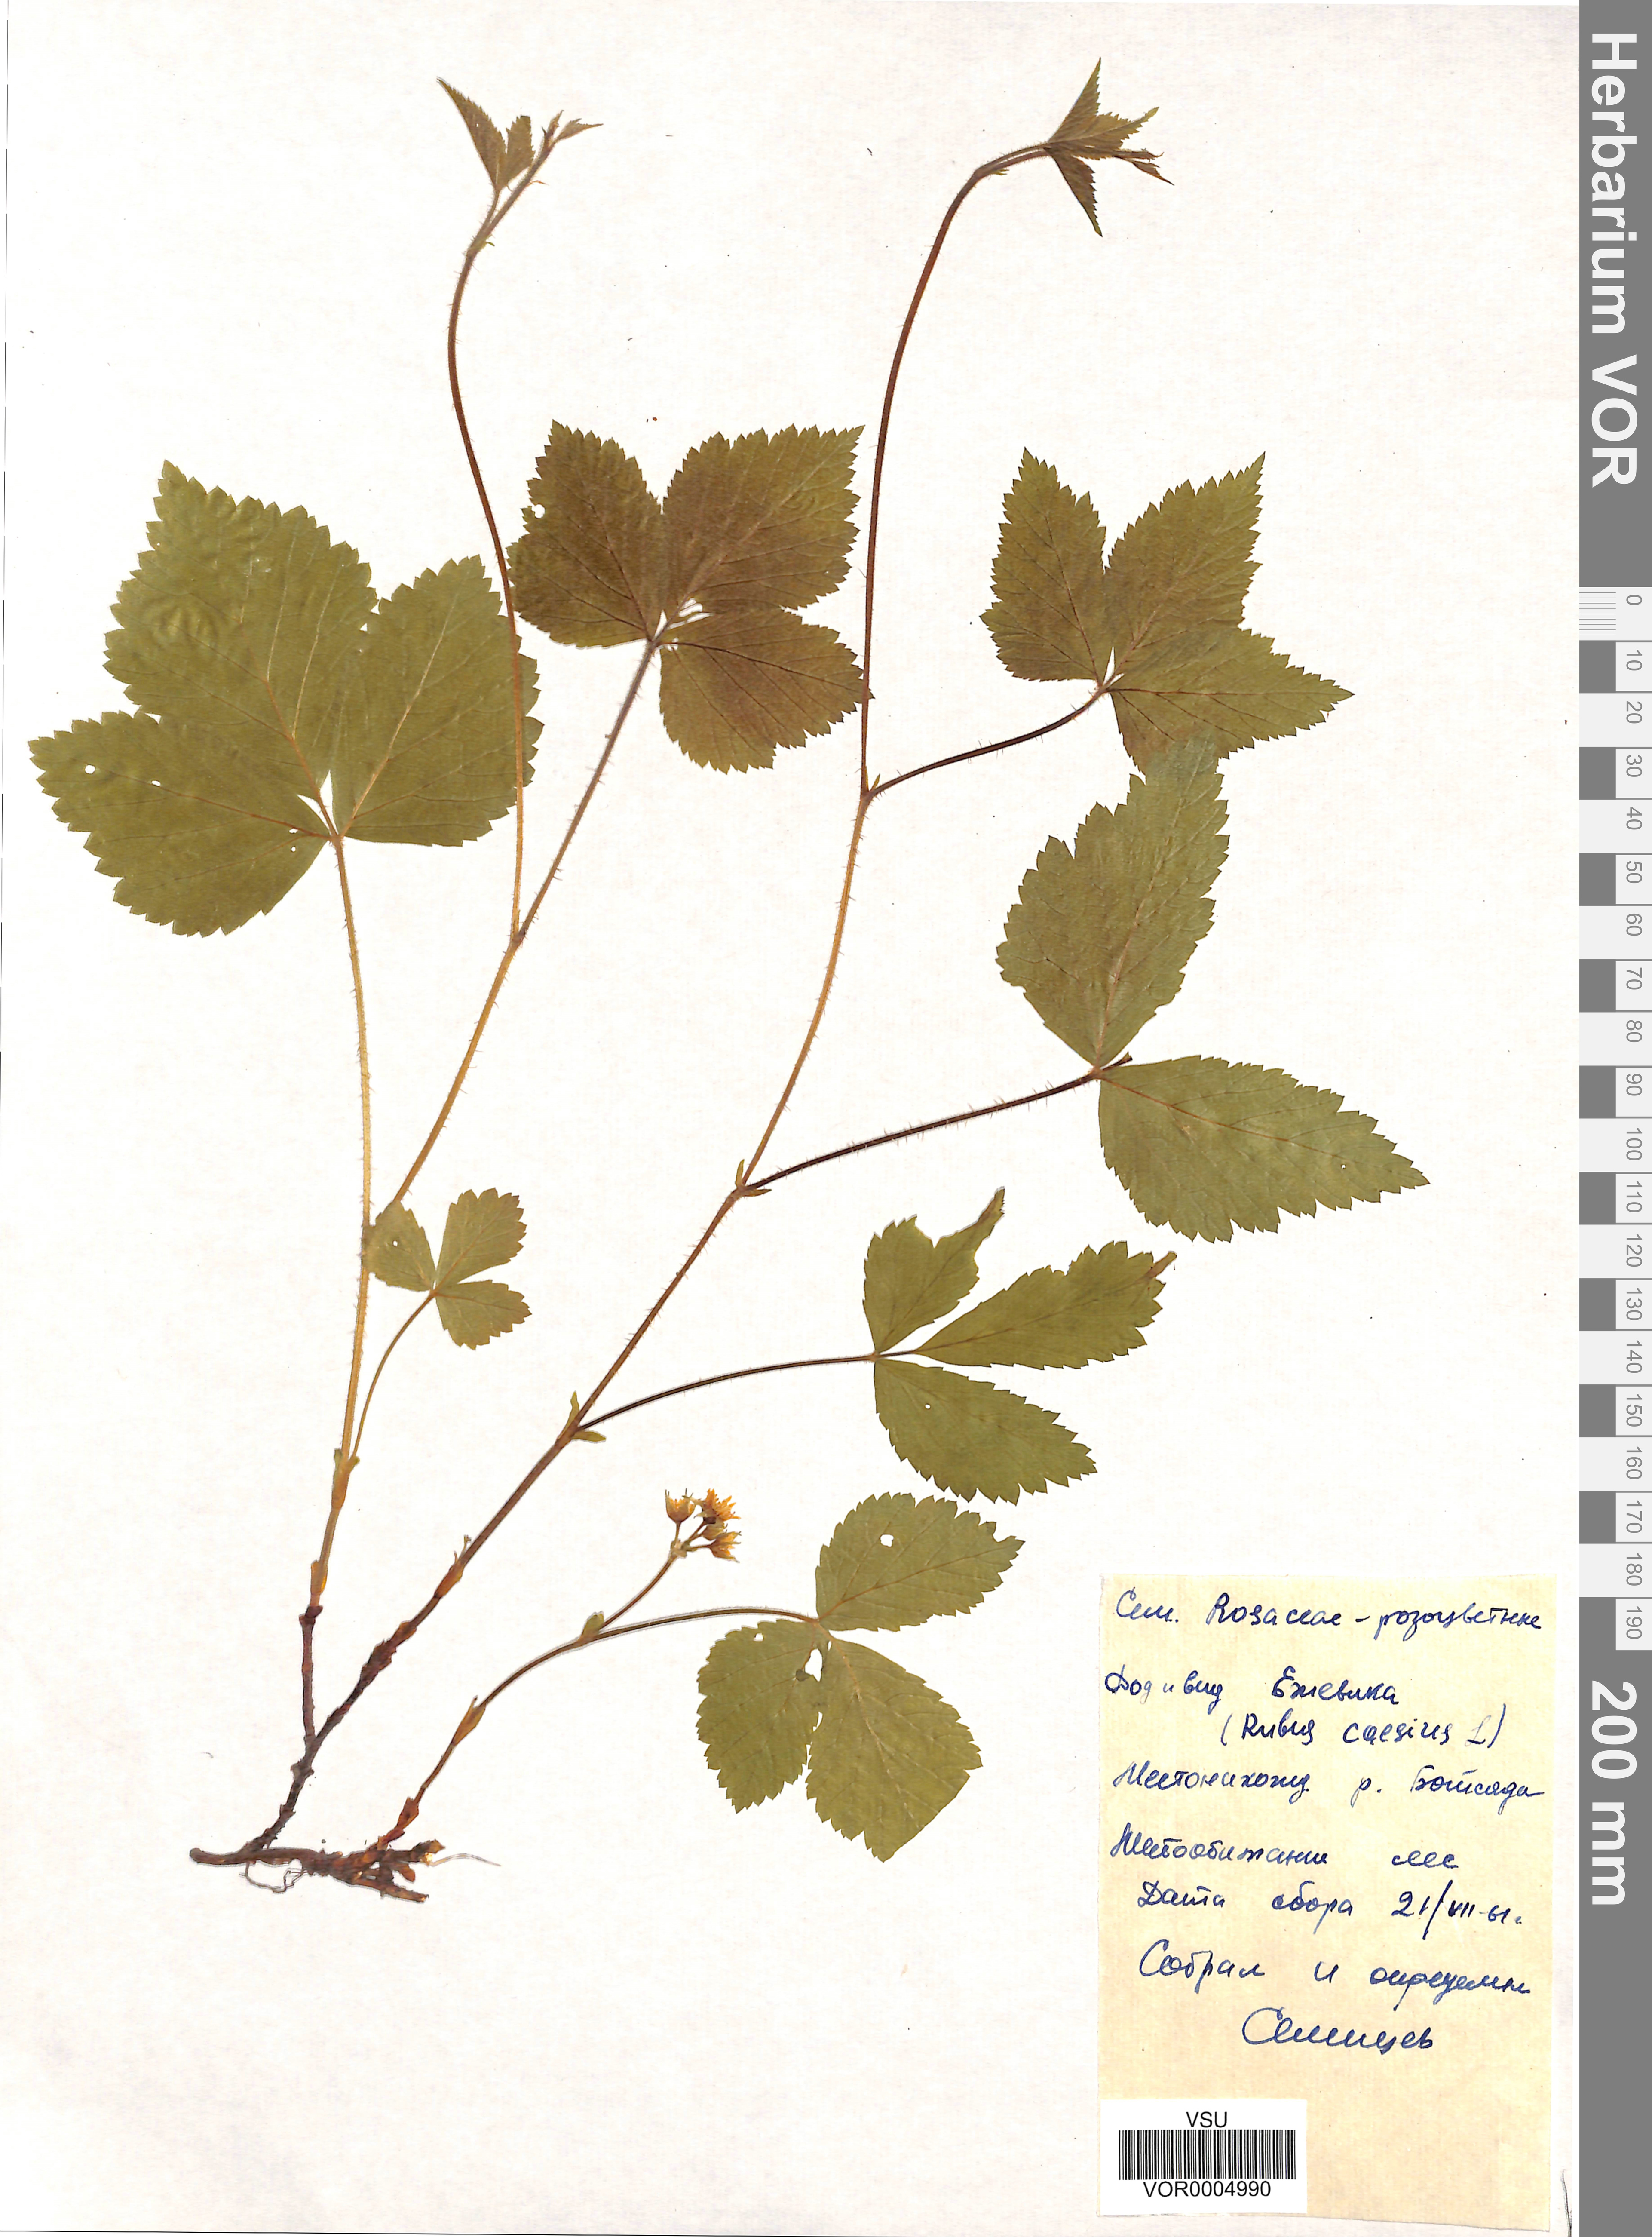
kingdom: Plantae
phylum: Tracheophyta
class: Magnoliopsida
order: Rosales
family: Rosaceae
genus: Rubus
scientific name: Rubus caesius
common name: Dewberry
